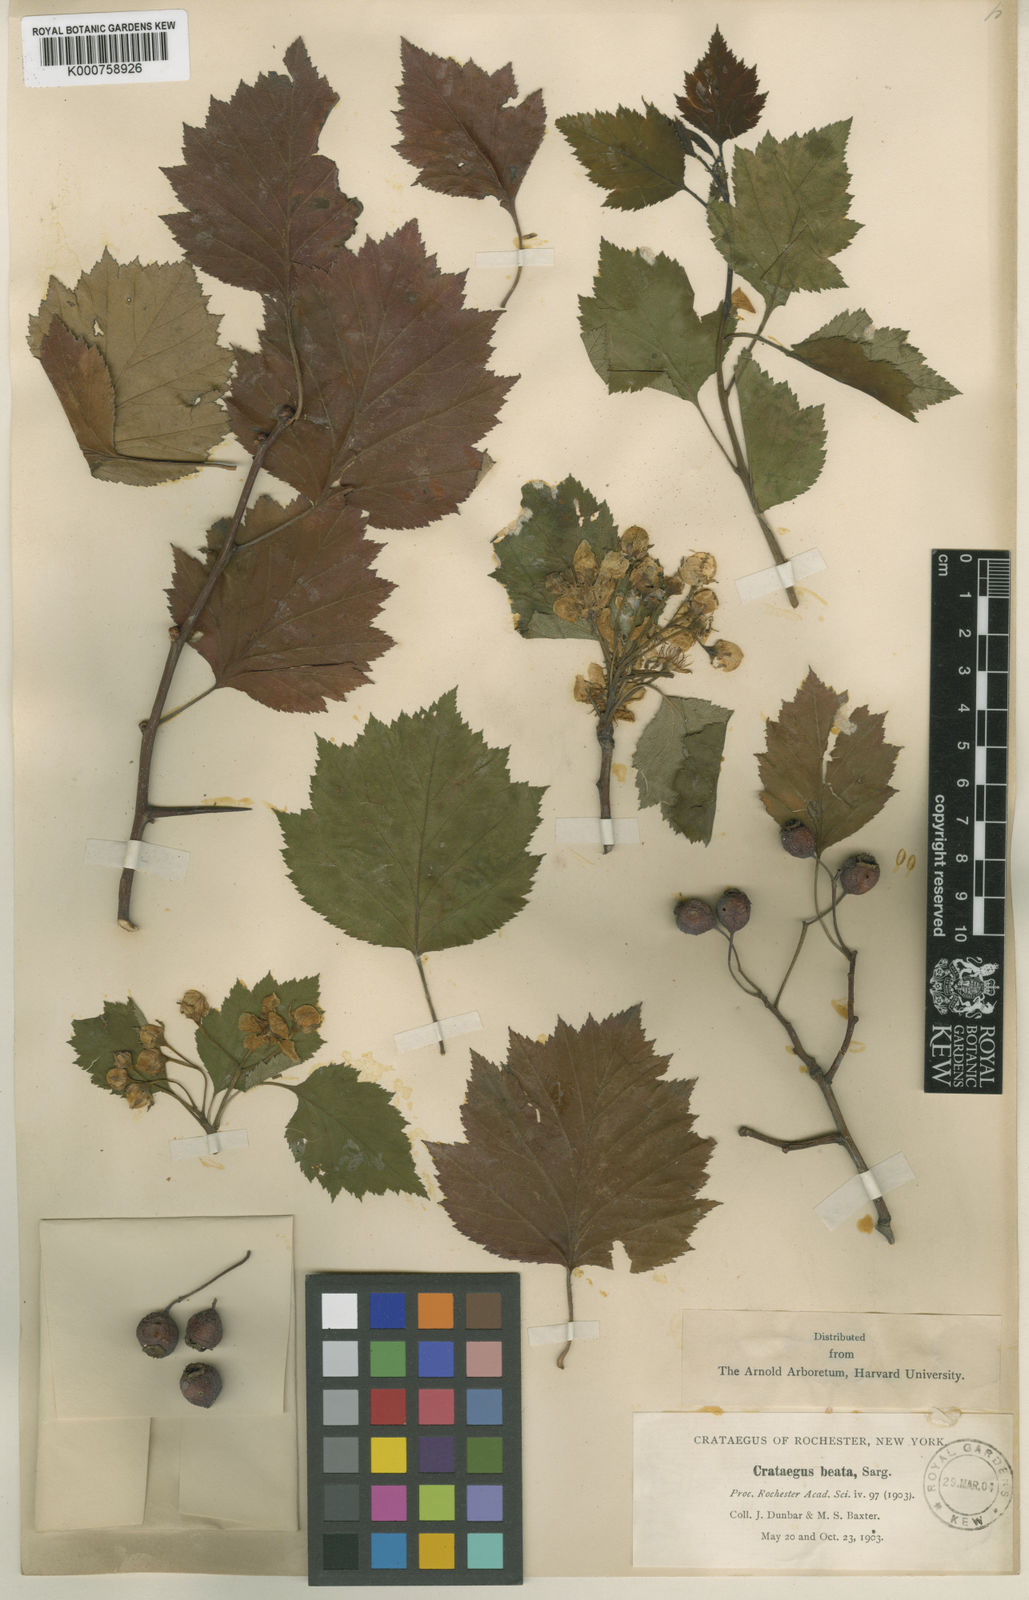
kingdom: Plantae
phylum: Tracheophyta
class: Magnoliopsida
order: Rosales
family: Rosaceae
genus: Crataegus
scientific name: Crataegus beata
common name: Dunbar's hawthorn
